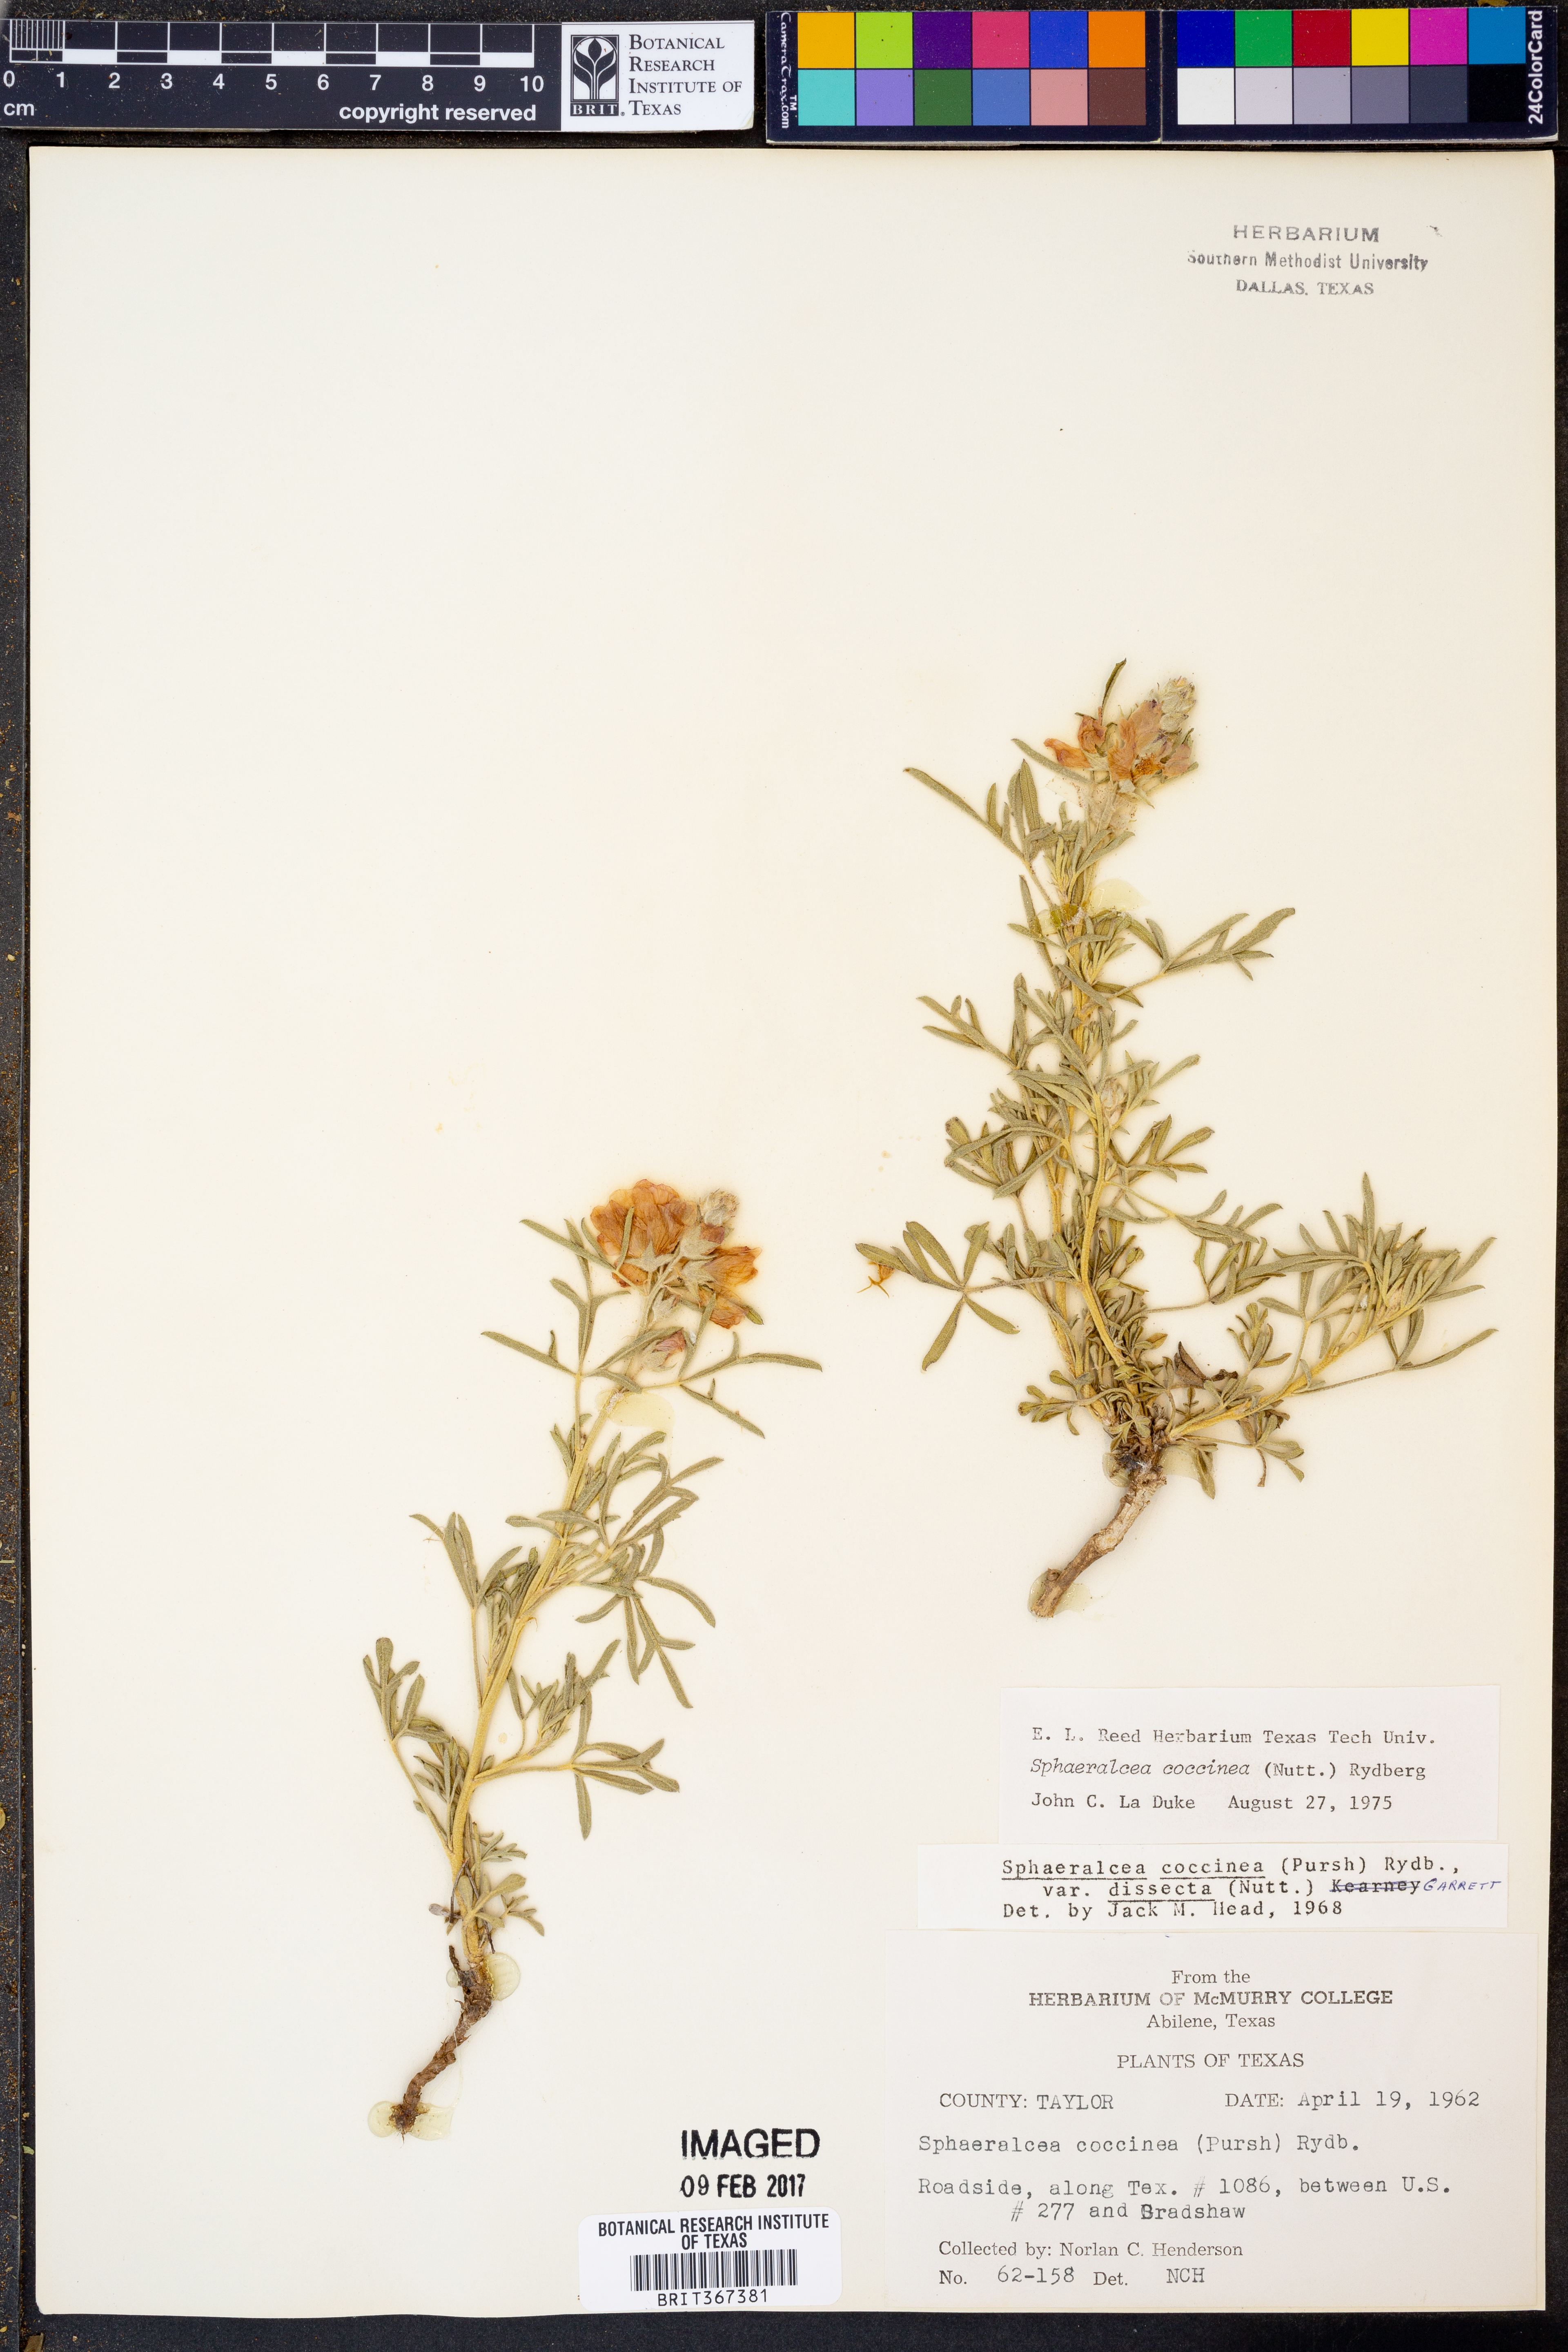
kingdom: Plantae
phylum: Tracheophyta
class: Magnoliopsida
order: Malvales
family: Malvaceae
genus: Sphaeralcea
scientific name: Sphaeralcea coccinea
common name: Moss-rose
